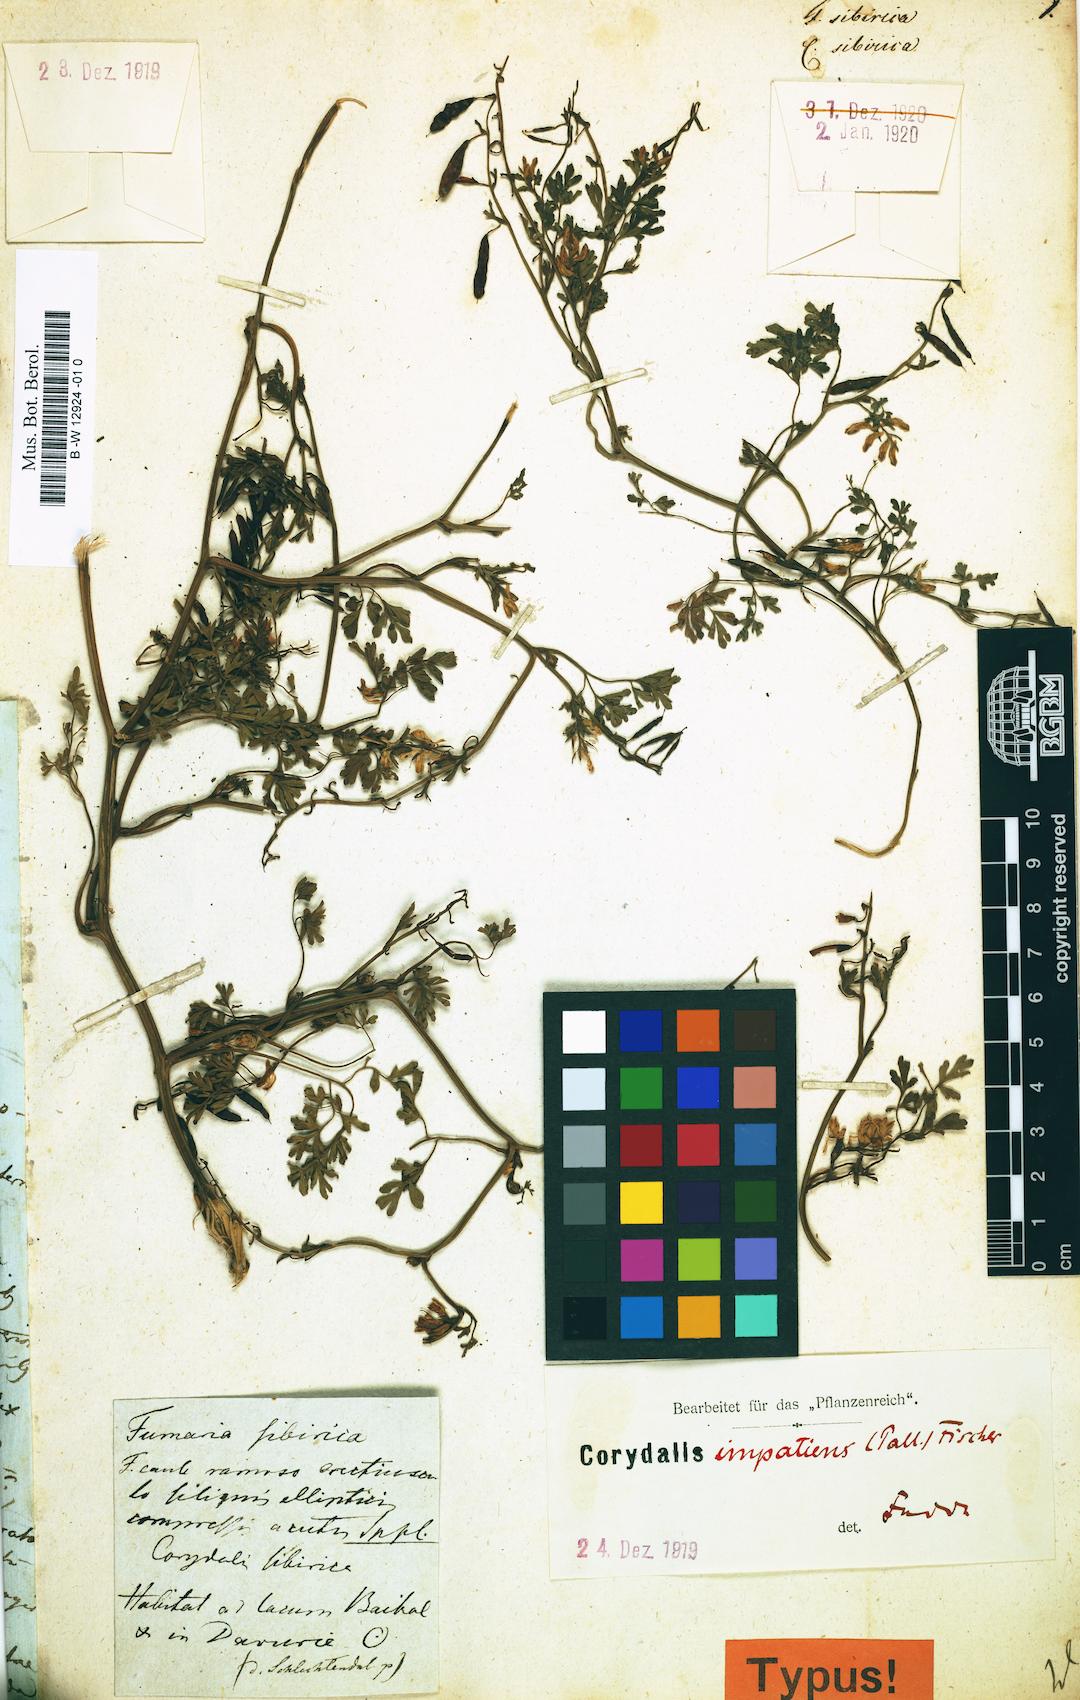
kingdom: Plantae
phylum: Tracheophyta
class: Magnoliopsida
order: Ranunculales
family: Papaveraceae
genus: Corydalis
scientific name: Corydalis sibirica
